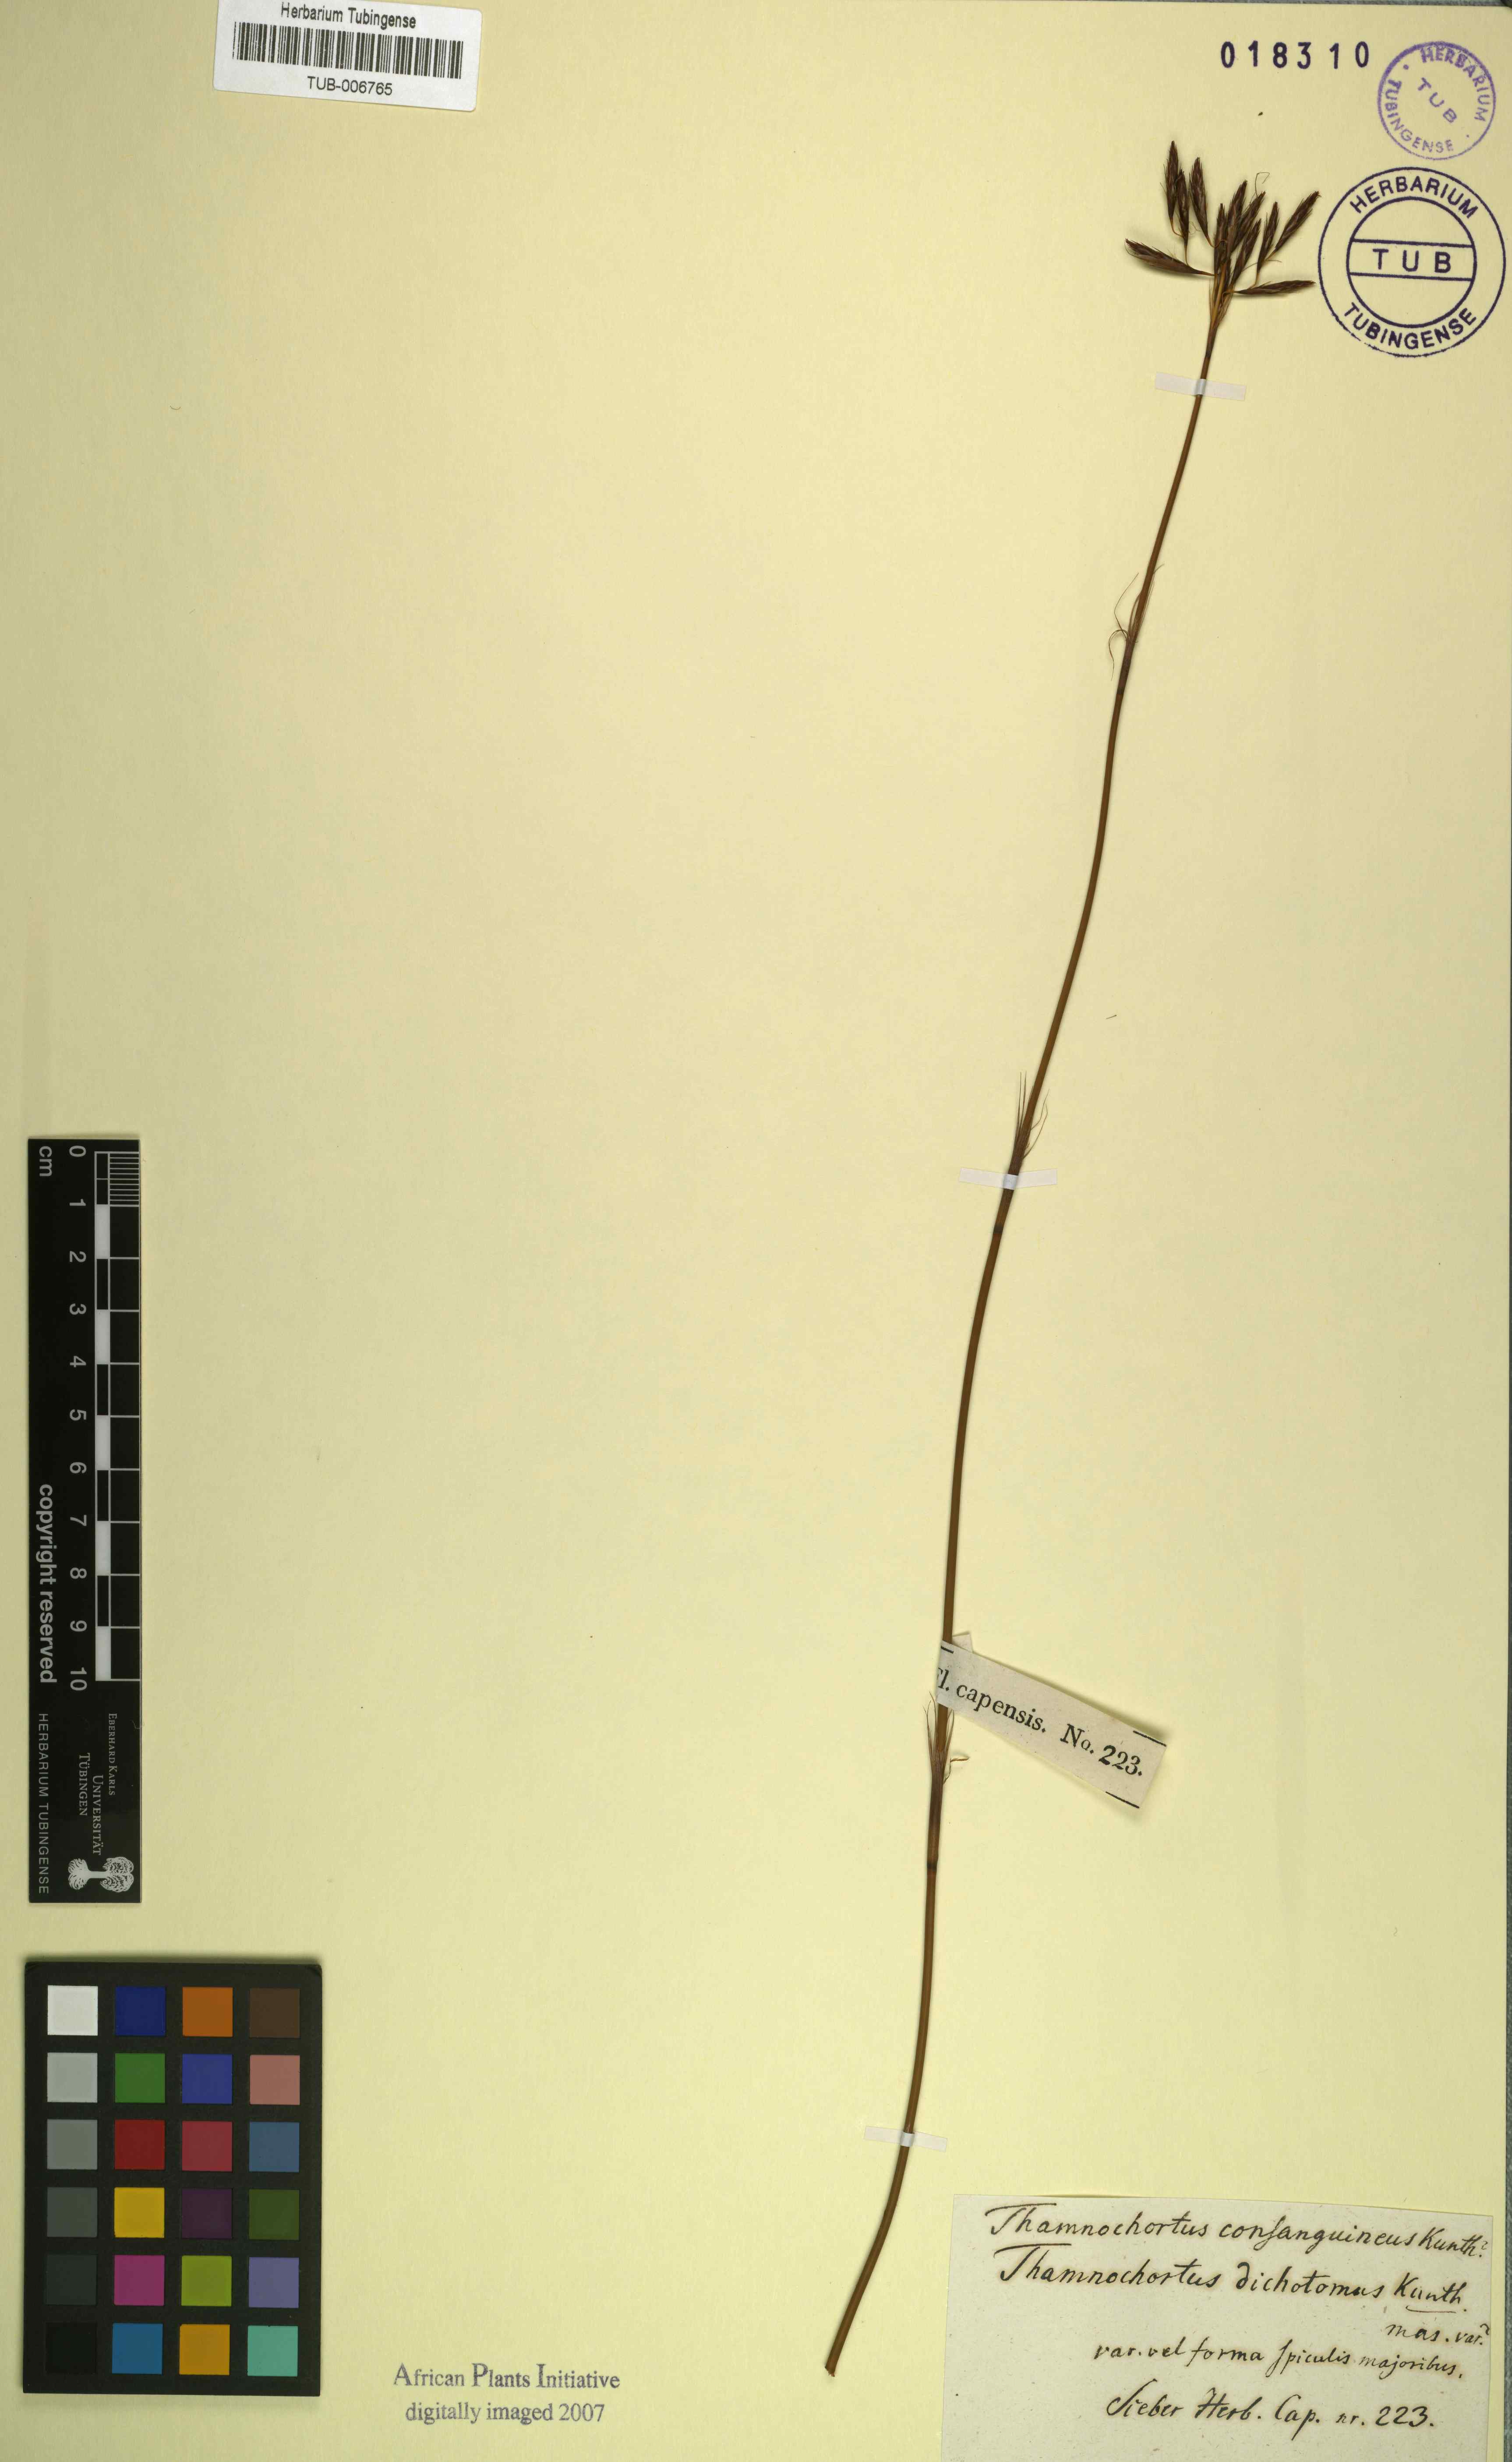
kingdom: Plantae
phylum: Tracheophyta
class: Liliopsida
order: Poales
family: Restionaceae
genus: Thamnochortus
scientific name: Thamnochortus lucens
